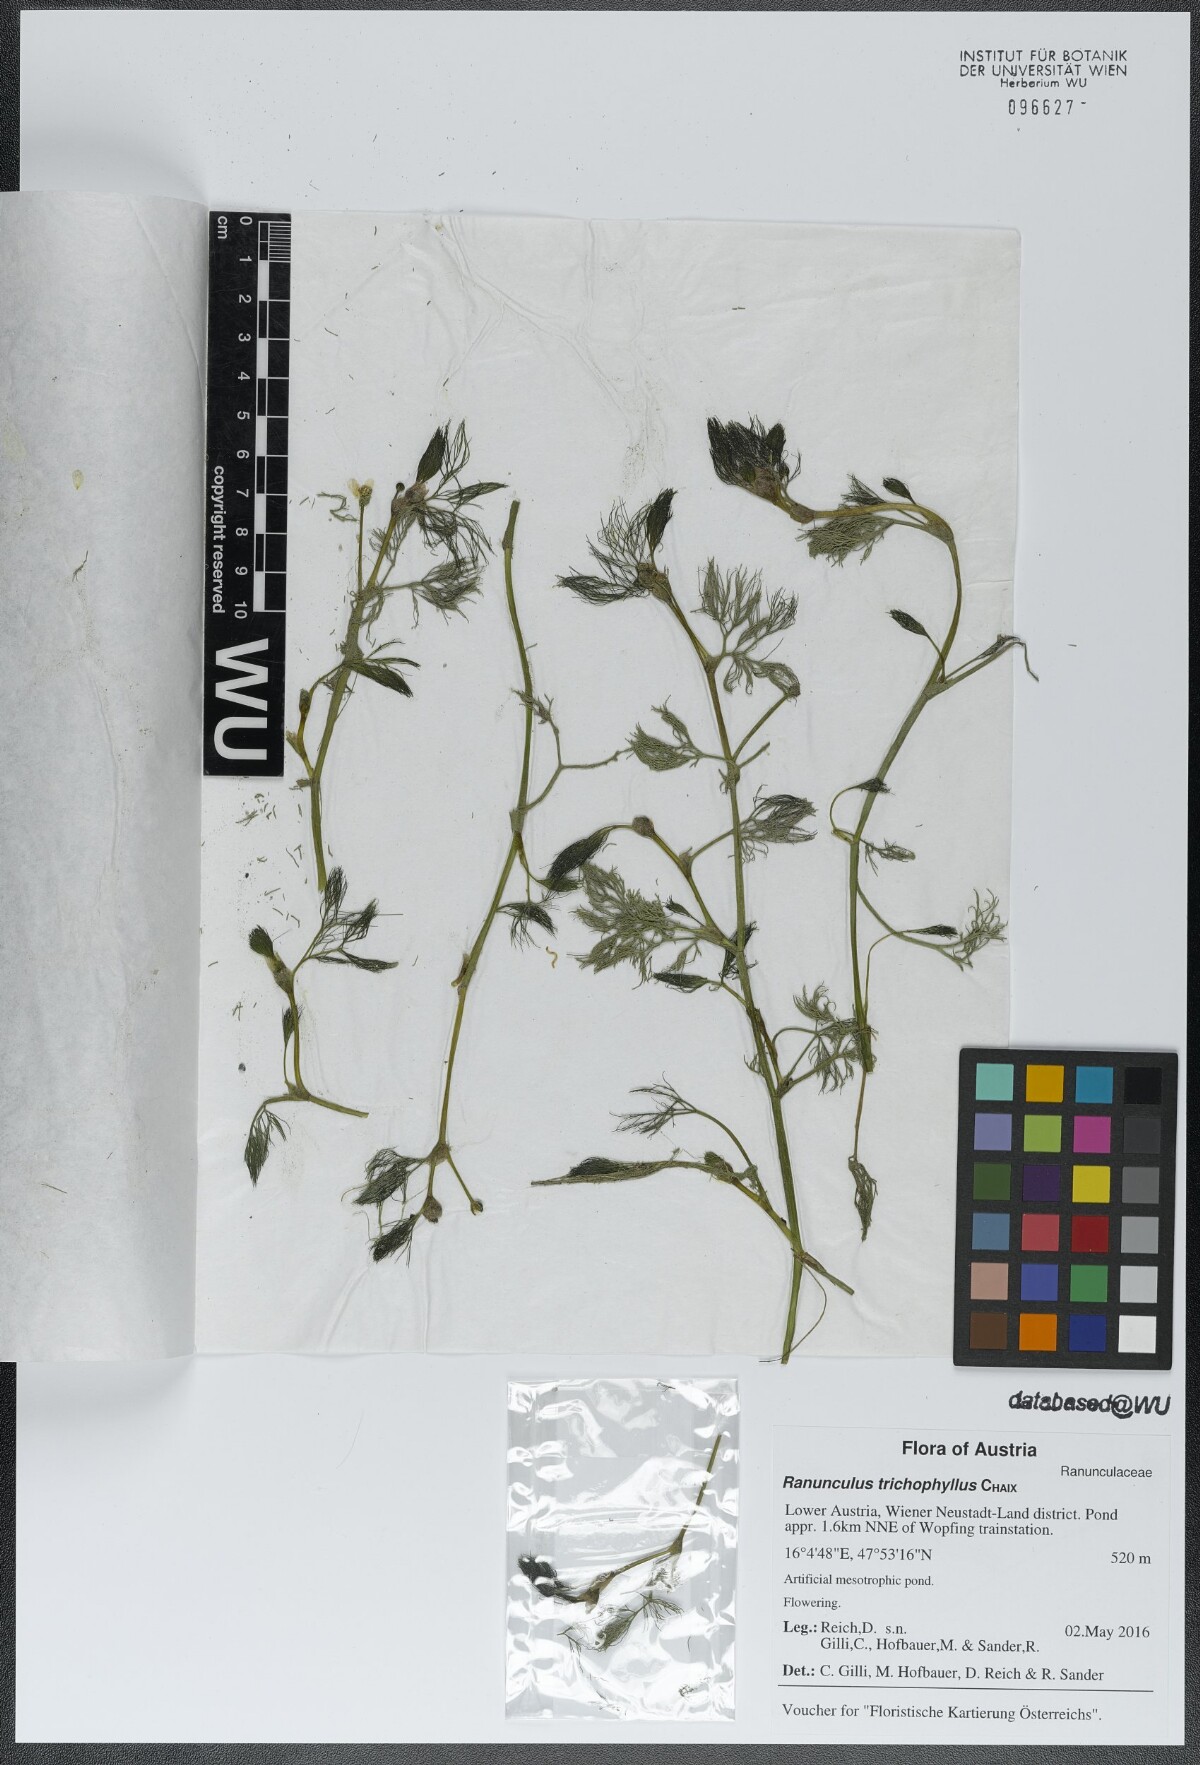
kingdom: Plantae
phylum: Tracheophyta
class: Magnoliopsida
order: Ranunculales
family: Ranunculaceae
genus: Ranunculus
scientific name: Ranunculus trichophyllus
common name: Thread-leaved water-crowfoot
